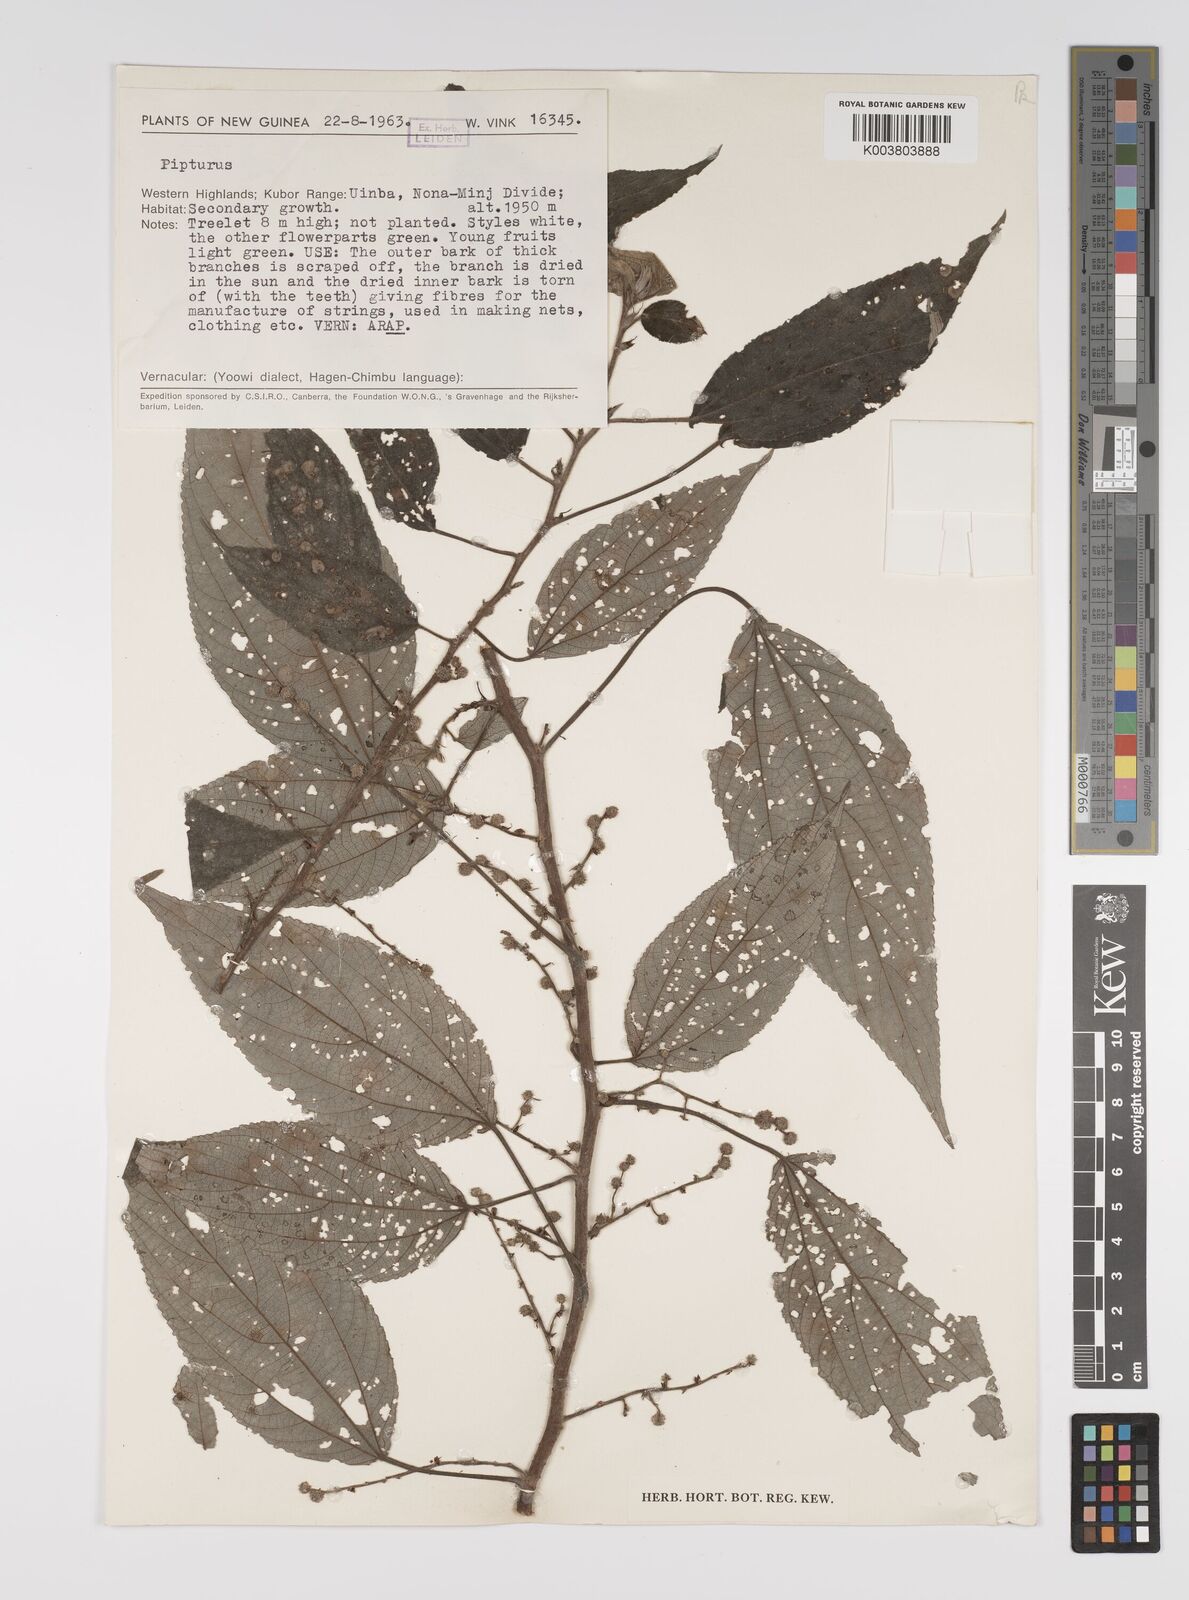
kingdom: Plantae
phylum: Tracheophyta
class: Magnoliopsida
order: Rosales
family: Urticaceae
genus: Pipturus
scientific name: Pipturus argenteus
